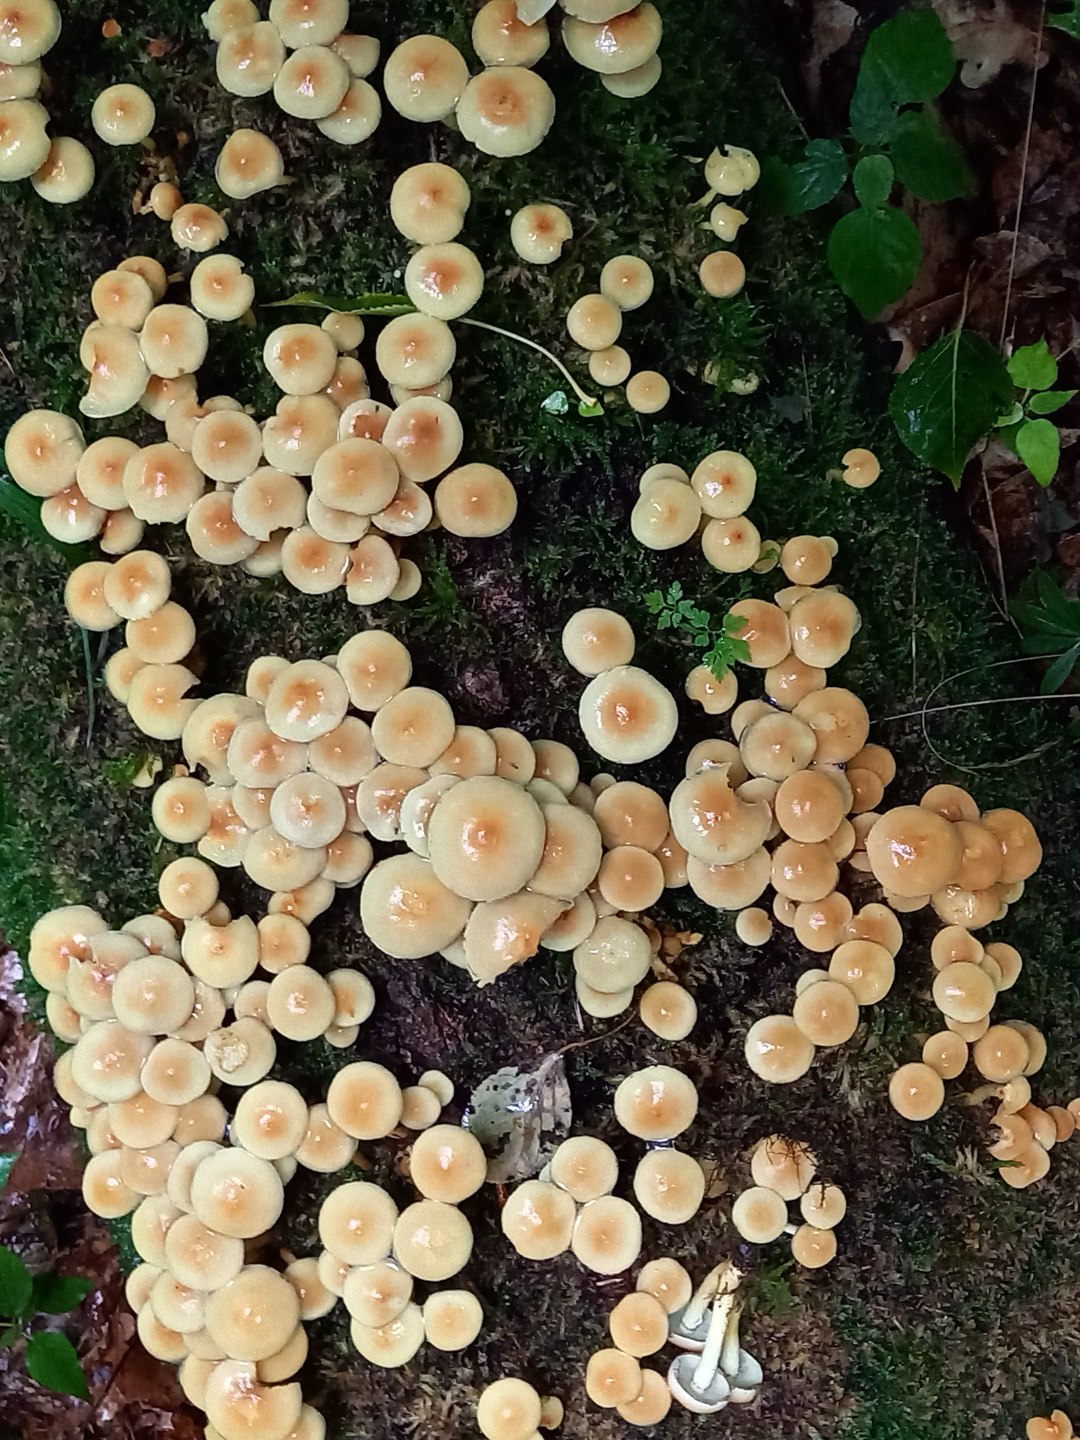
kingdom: Fungi
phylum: Basidiomycota
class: Agaricomycetes
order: Agaricales
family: Strophariaceae
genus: Hypholoma
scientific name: Hypholoma fasciculare
